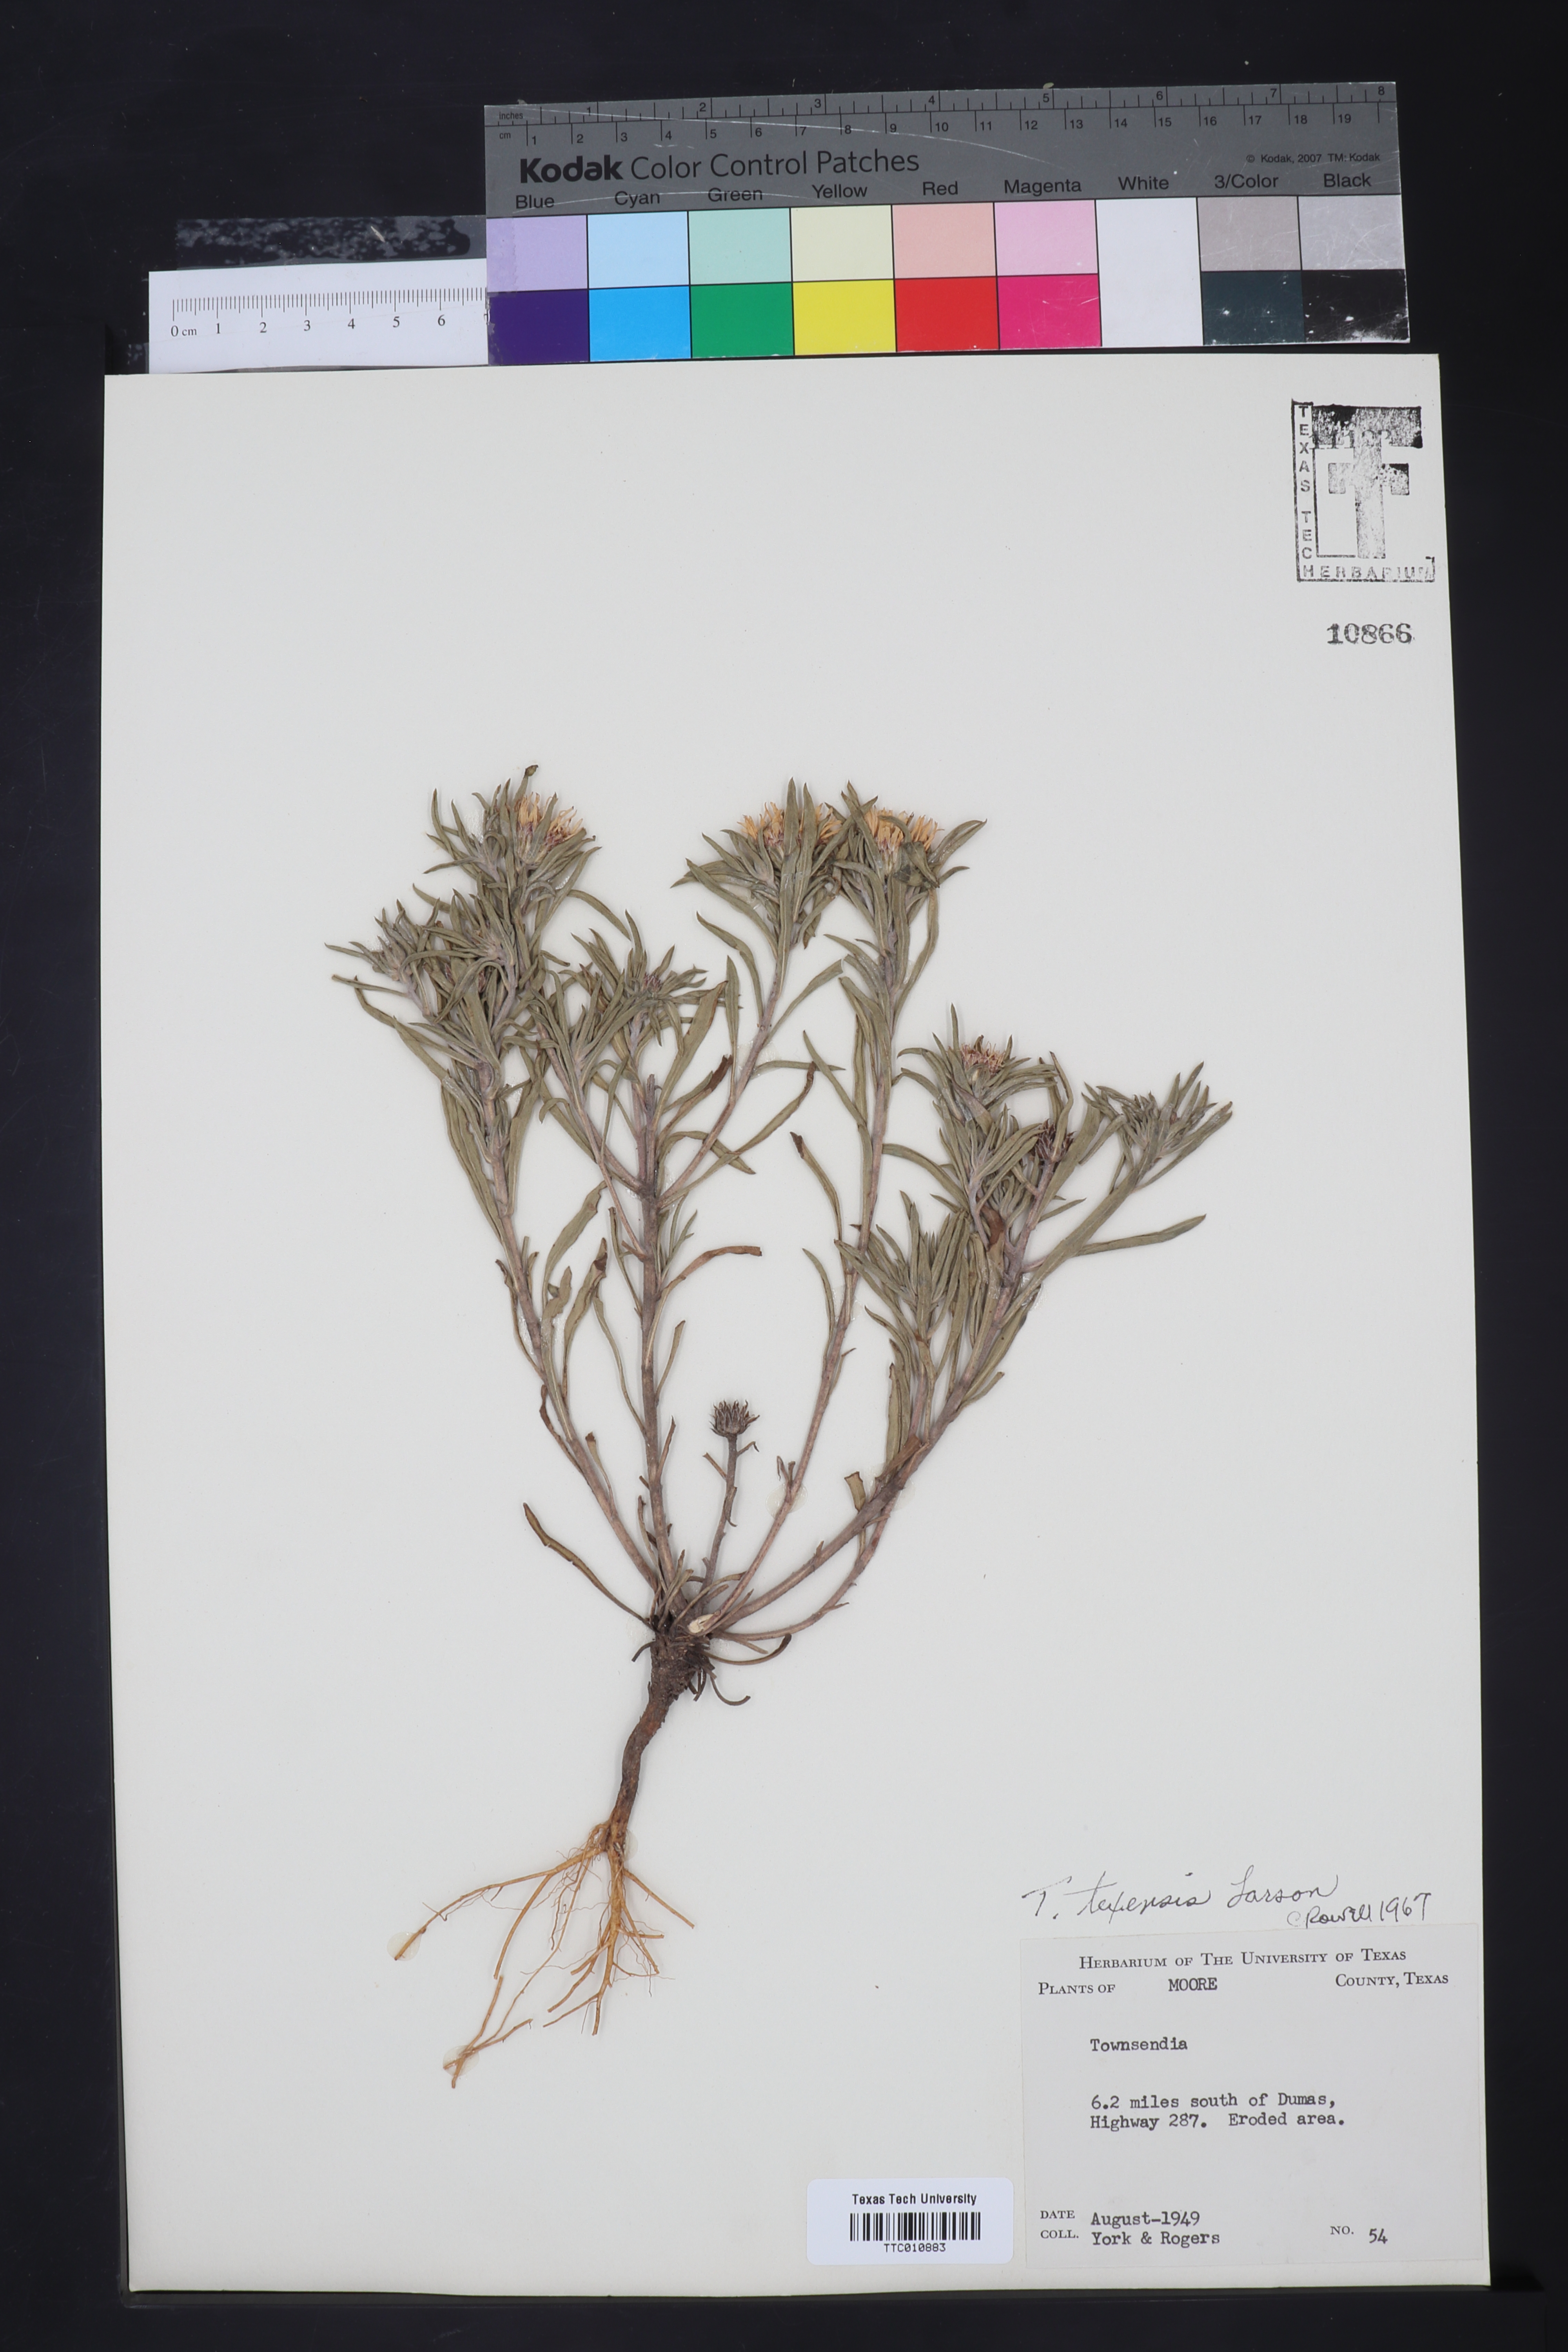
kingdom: Plantae
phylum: Tracheophyta
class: Magnoliopsida
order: Asterales
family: Asteraceae
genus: Townsendia
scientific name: Townsendia texensis
